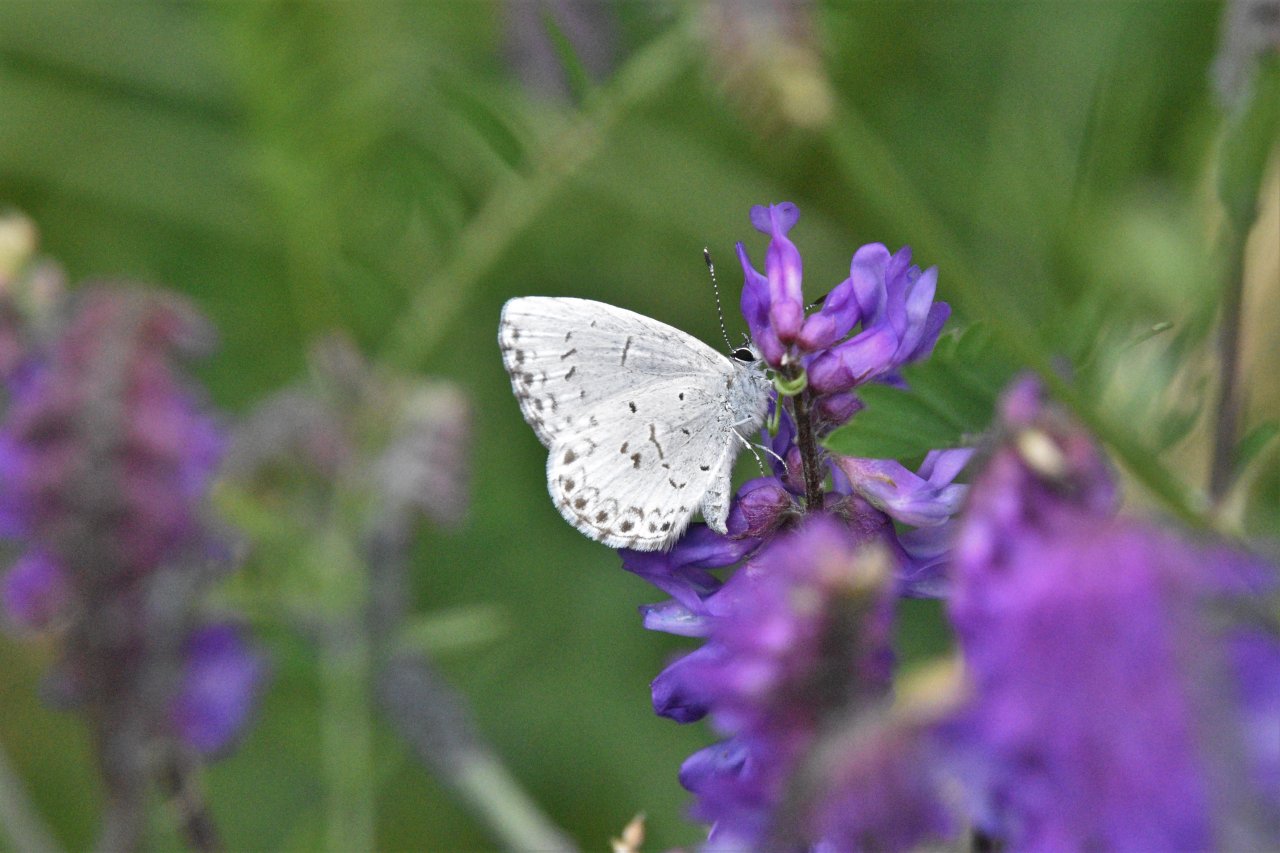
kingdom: Animalia
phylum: Arthropoda
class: Insecta
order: Lepidoptera
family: Lycaenidae
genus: Celastrina
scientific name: Celastrina lucia
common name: Northern Spring Azure
